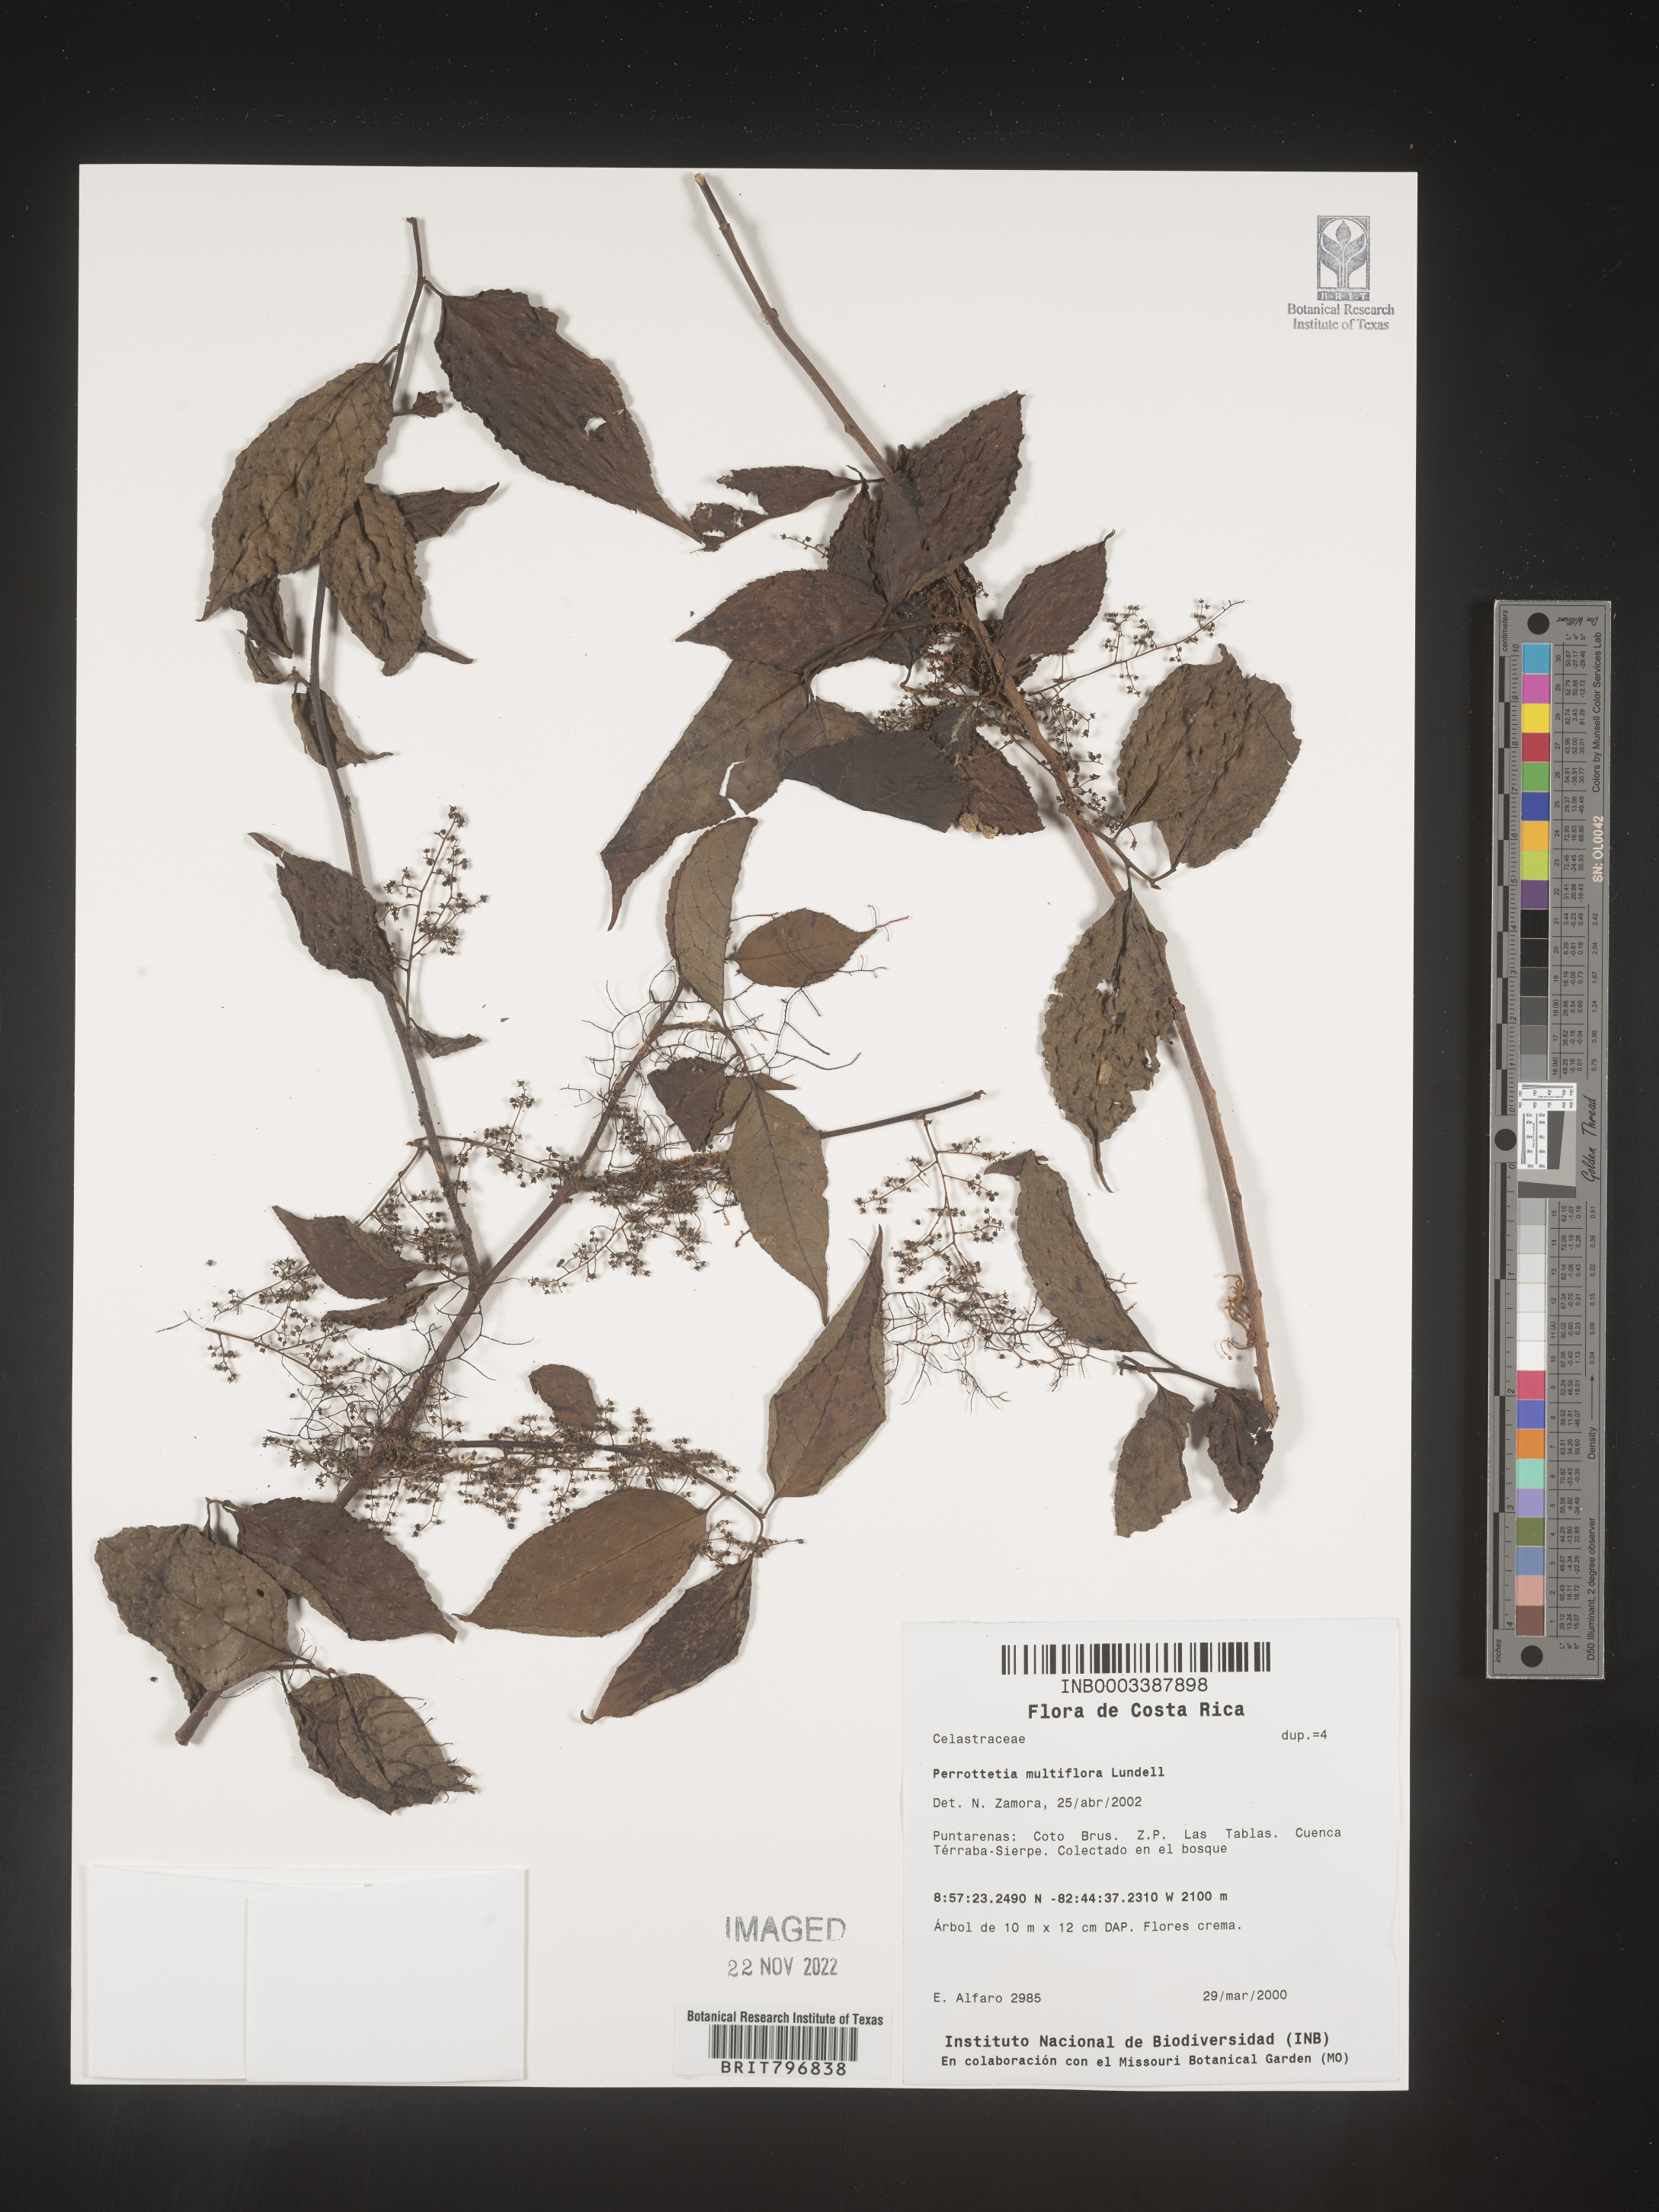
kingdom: Plantae
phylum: Tracheophyta
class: Magnoliopsida
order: Huerteales
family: Dipentodontaceae
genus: Perrottetia
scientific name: Perrottetia
